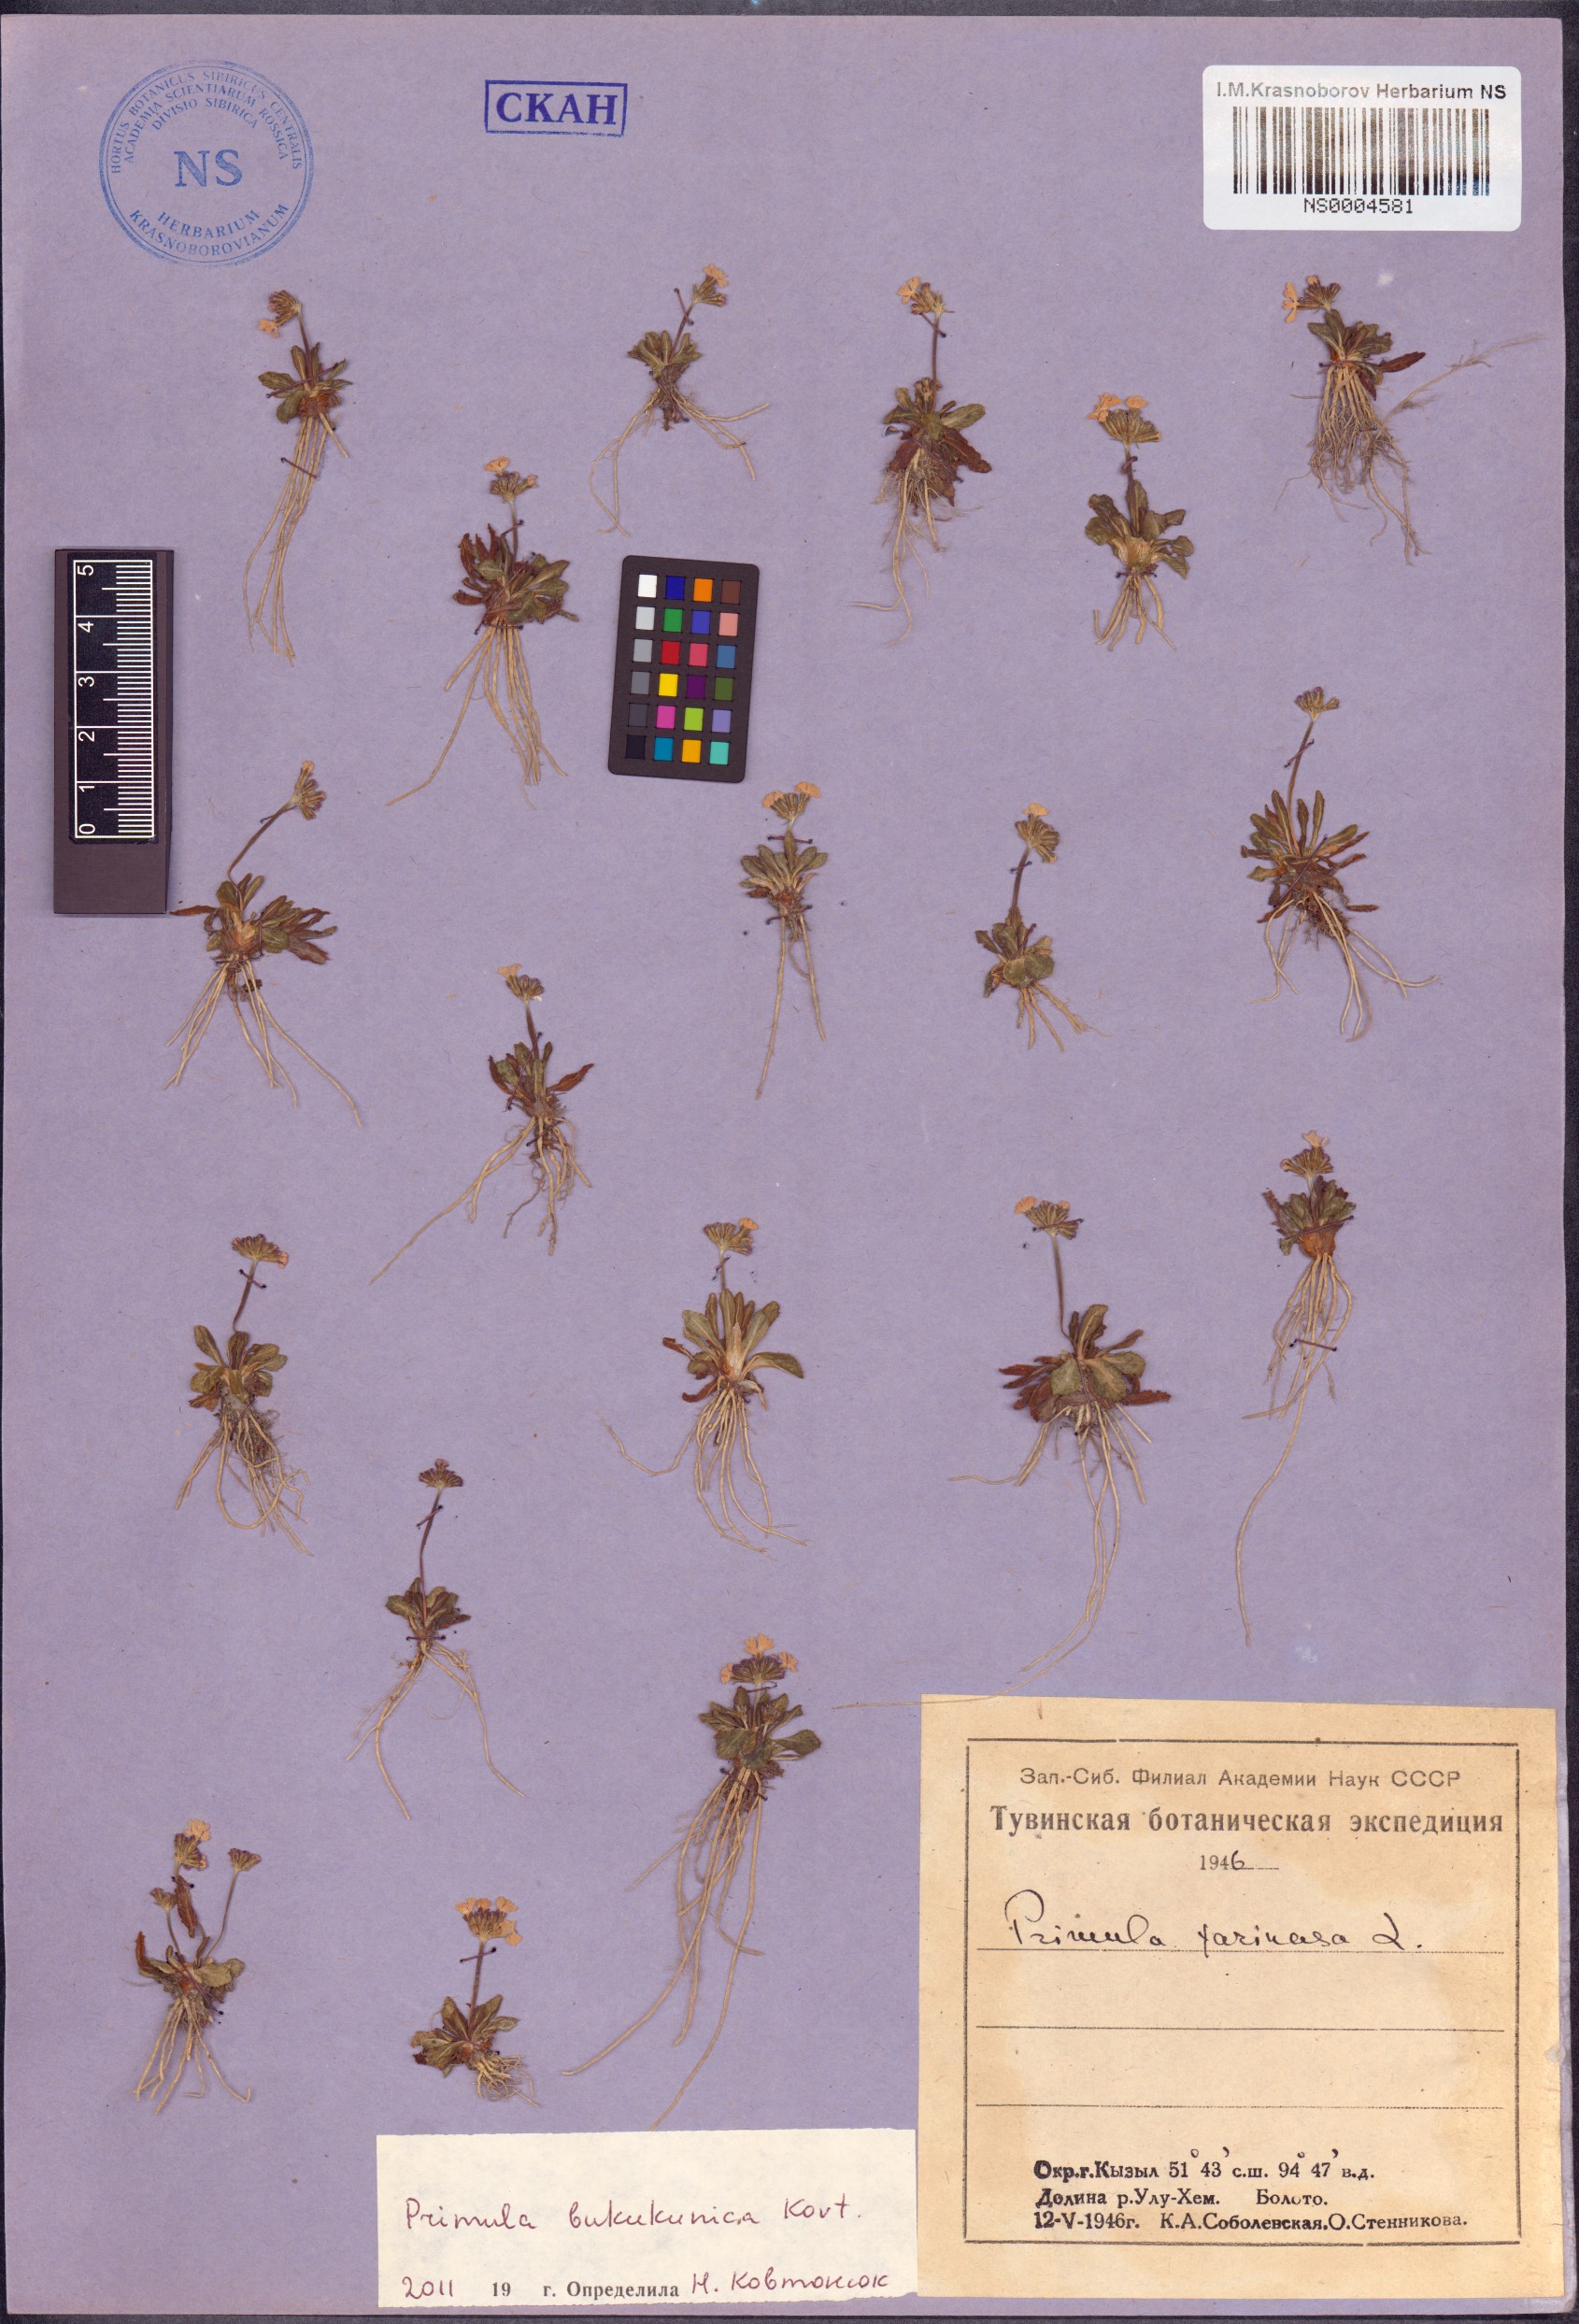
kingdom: Plantae
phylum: Tracheophyta
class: Magnoliopsida
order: Ericales
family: Primulaceae
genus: Primula
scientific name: Primula bukukunica
